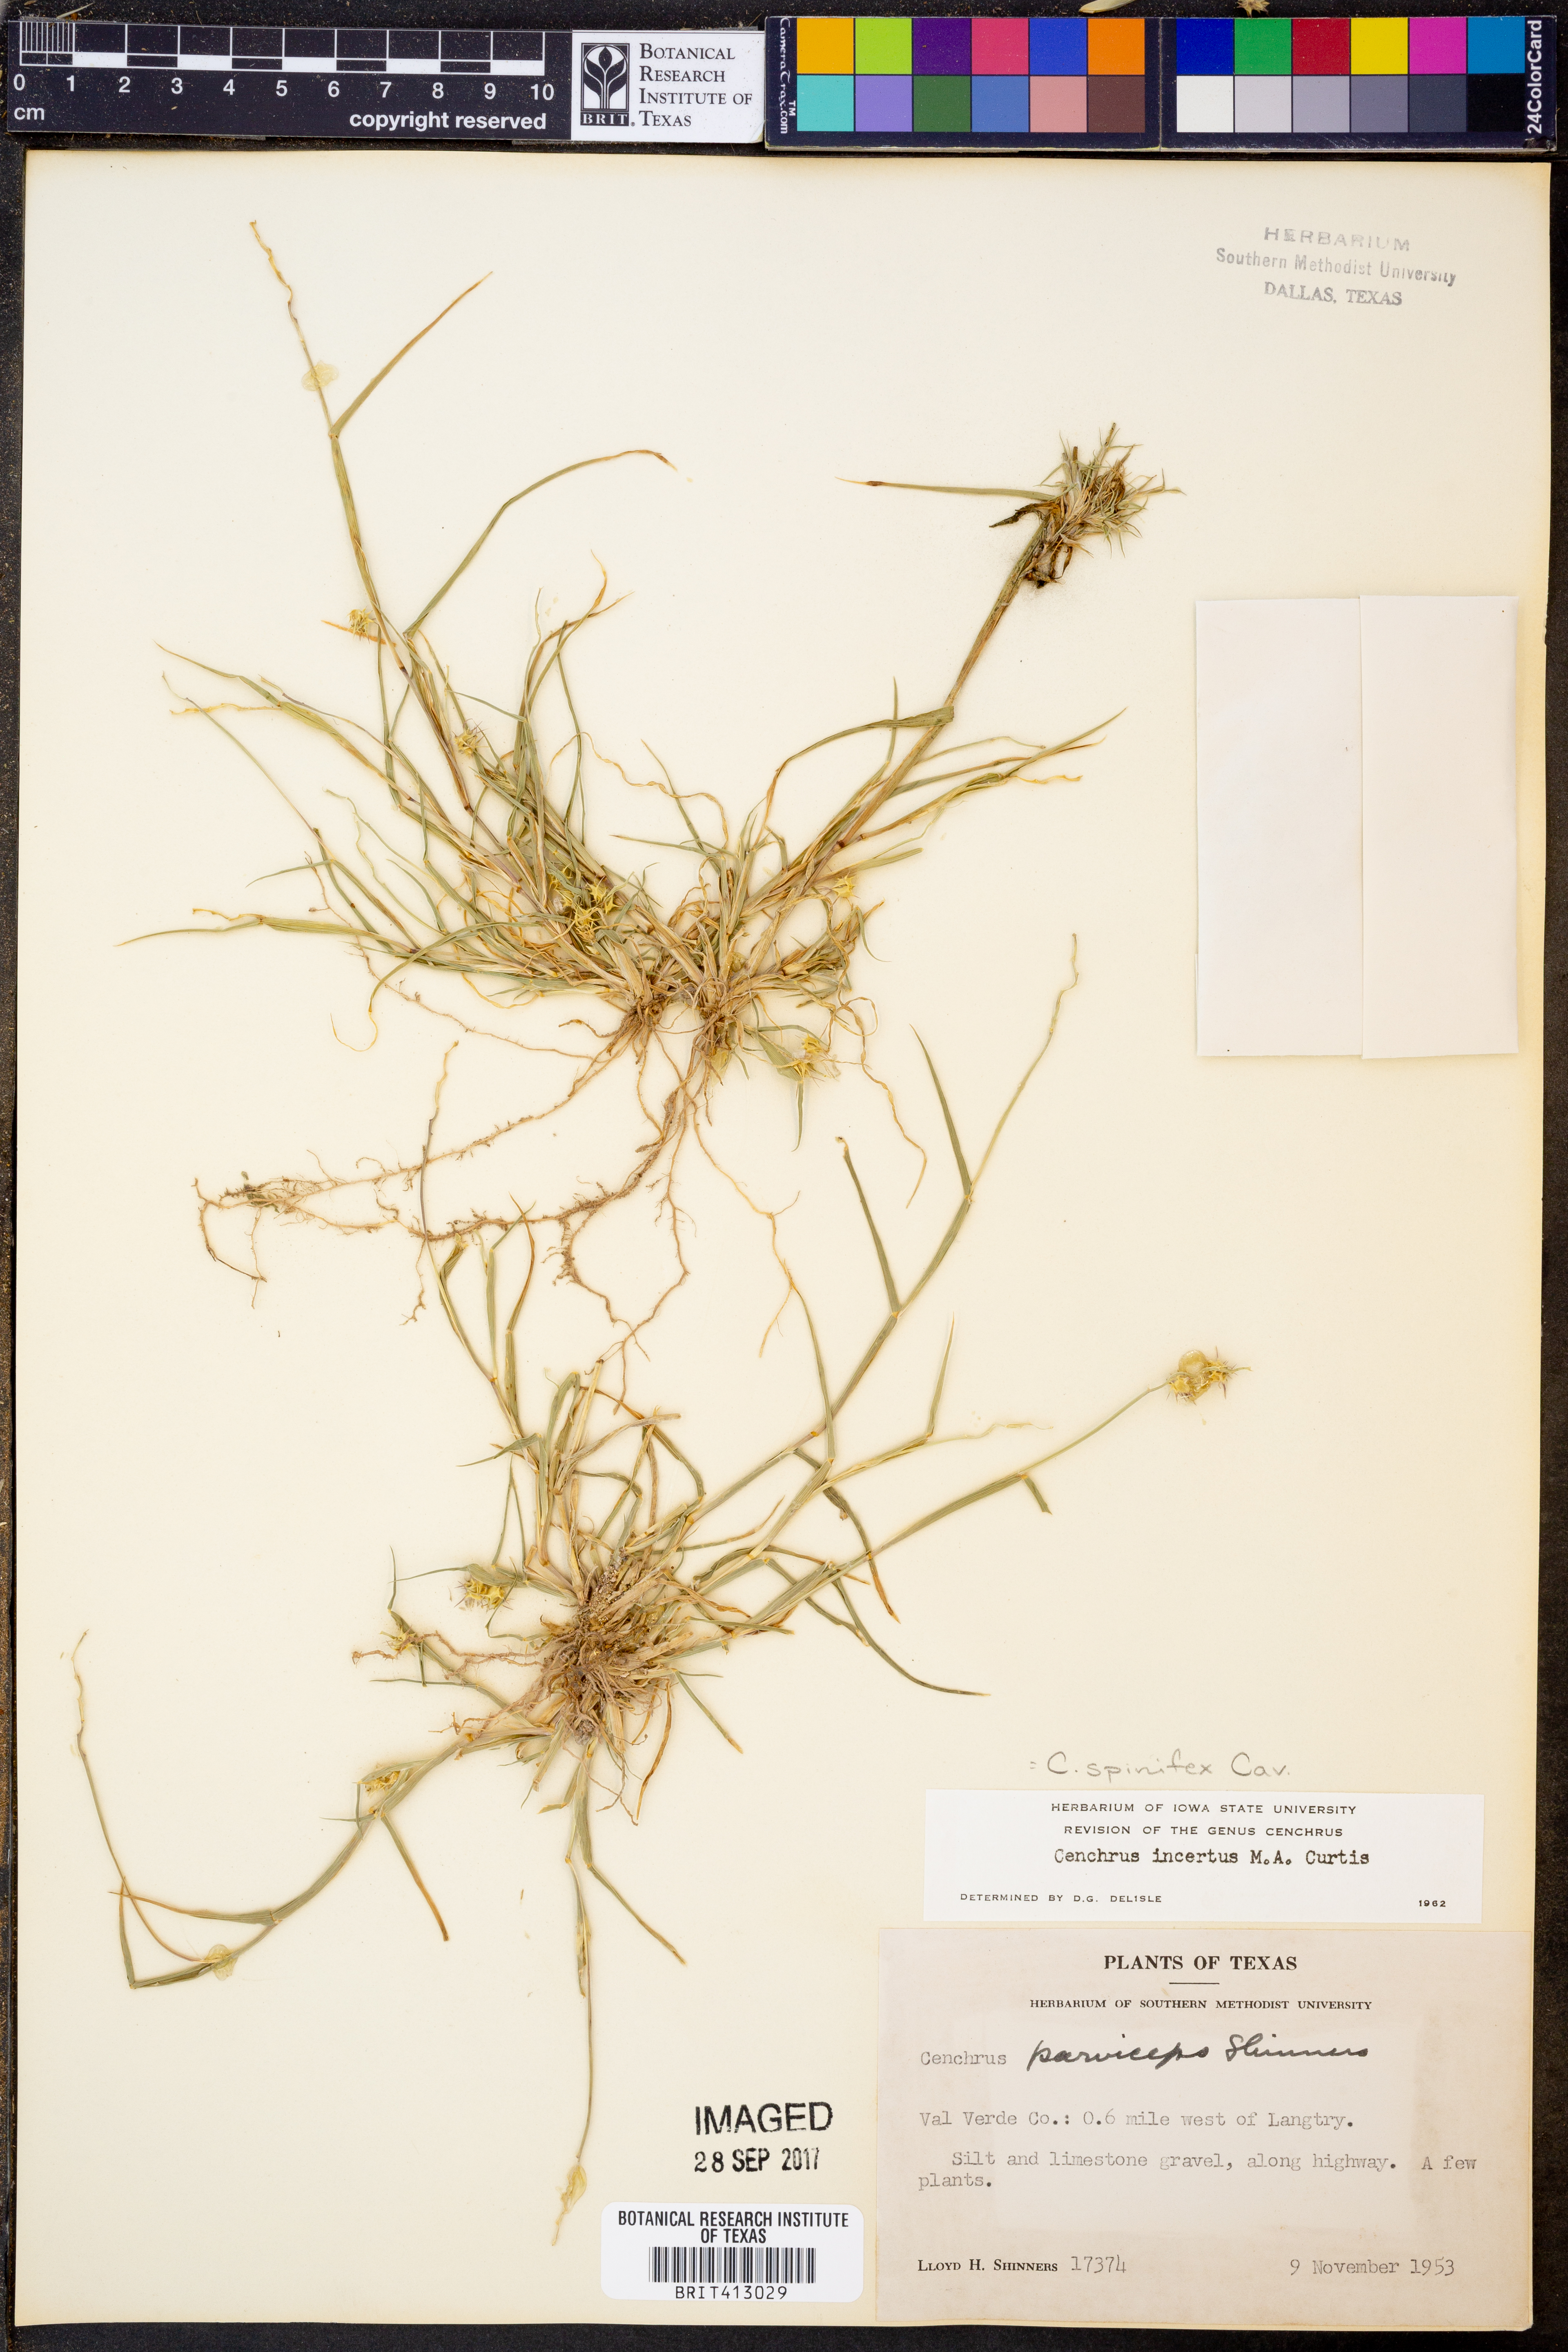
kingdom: Plantae
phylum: Tracheophyta
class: Liliopsida
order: Poales
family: Poaceae
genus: Cenchrus
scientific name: Cenchrus spinifex
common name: Coast sandbur
